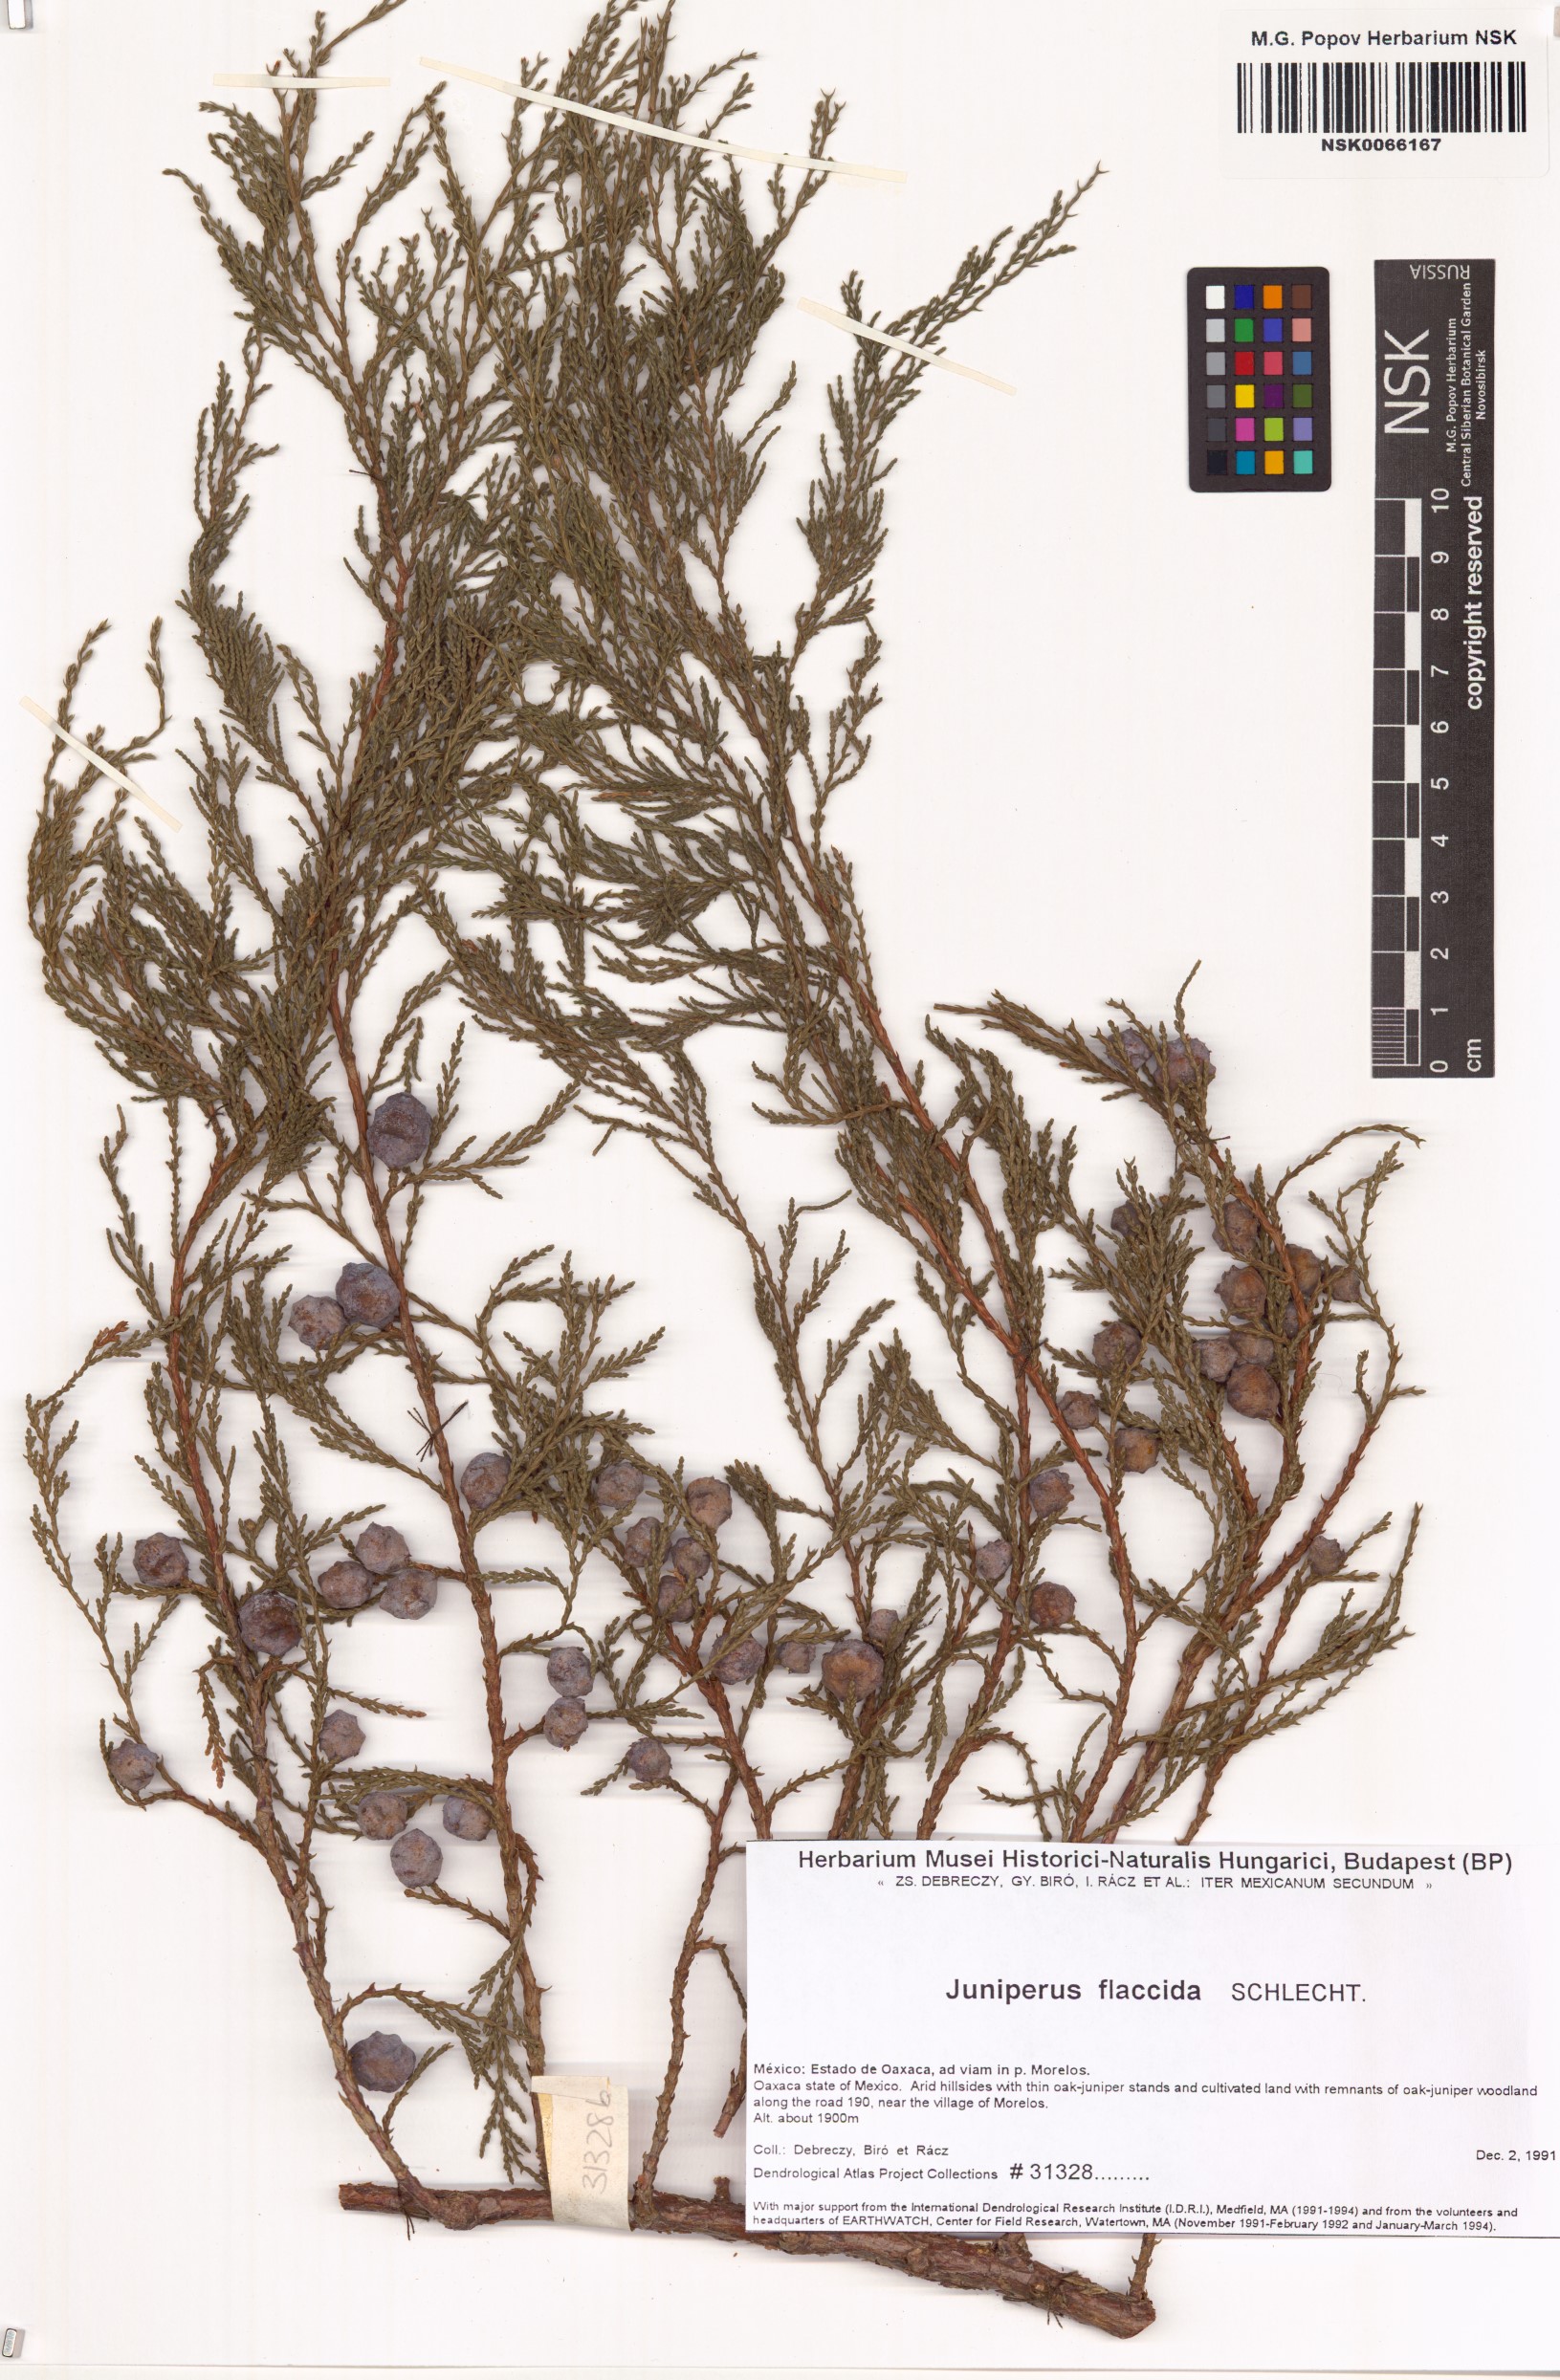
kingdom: Plantae
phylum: Tracheophyta
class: Pinopsida
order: Pinales
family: Cupressaceae
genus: Juniperus
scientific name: Juniperus flaccida
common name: Drooping juniper
